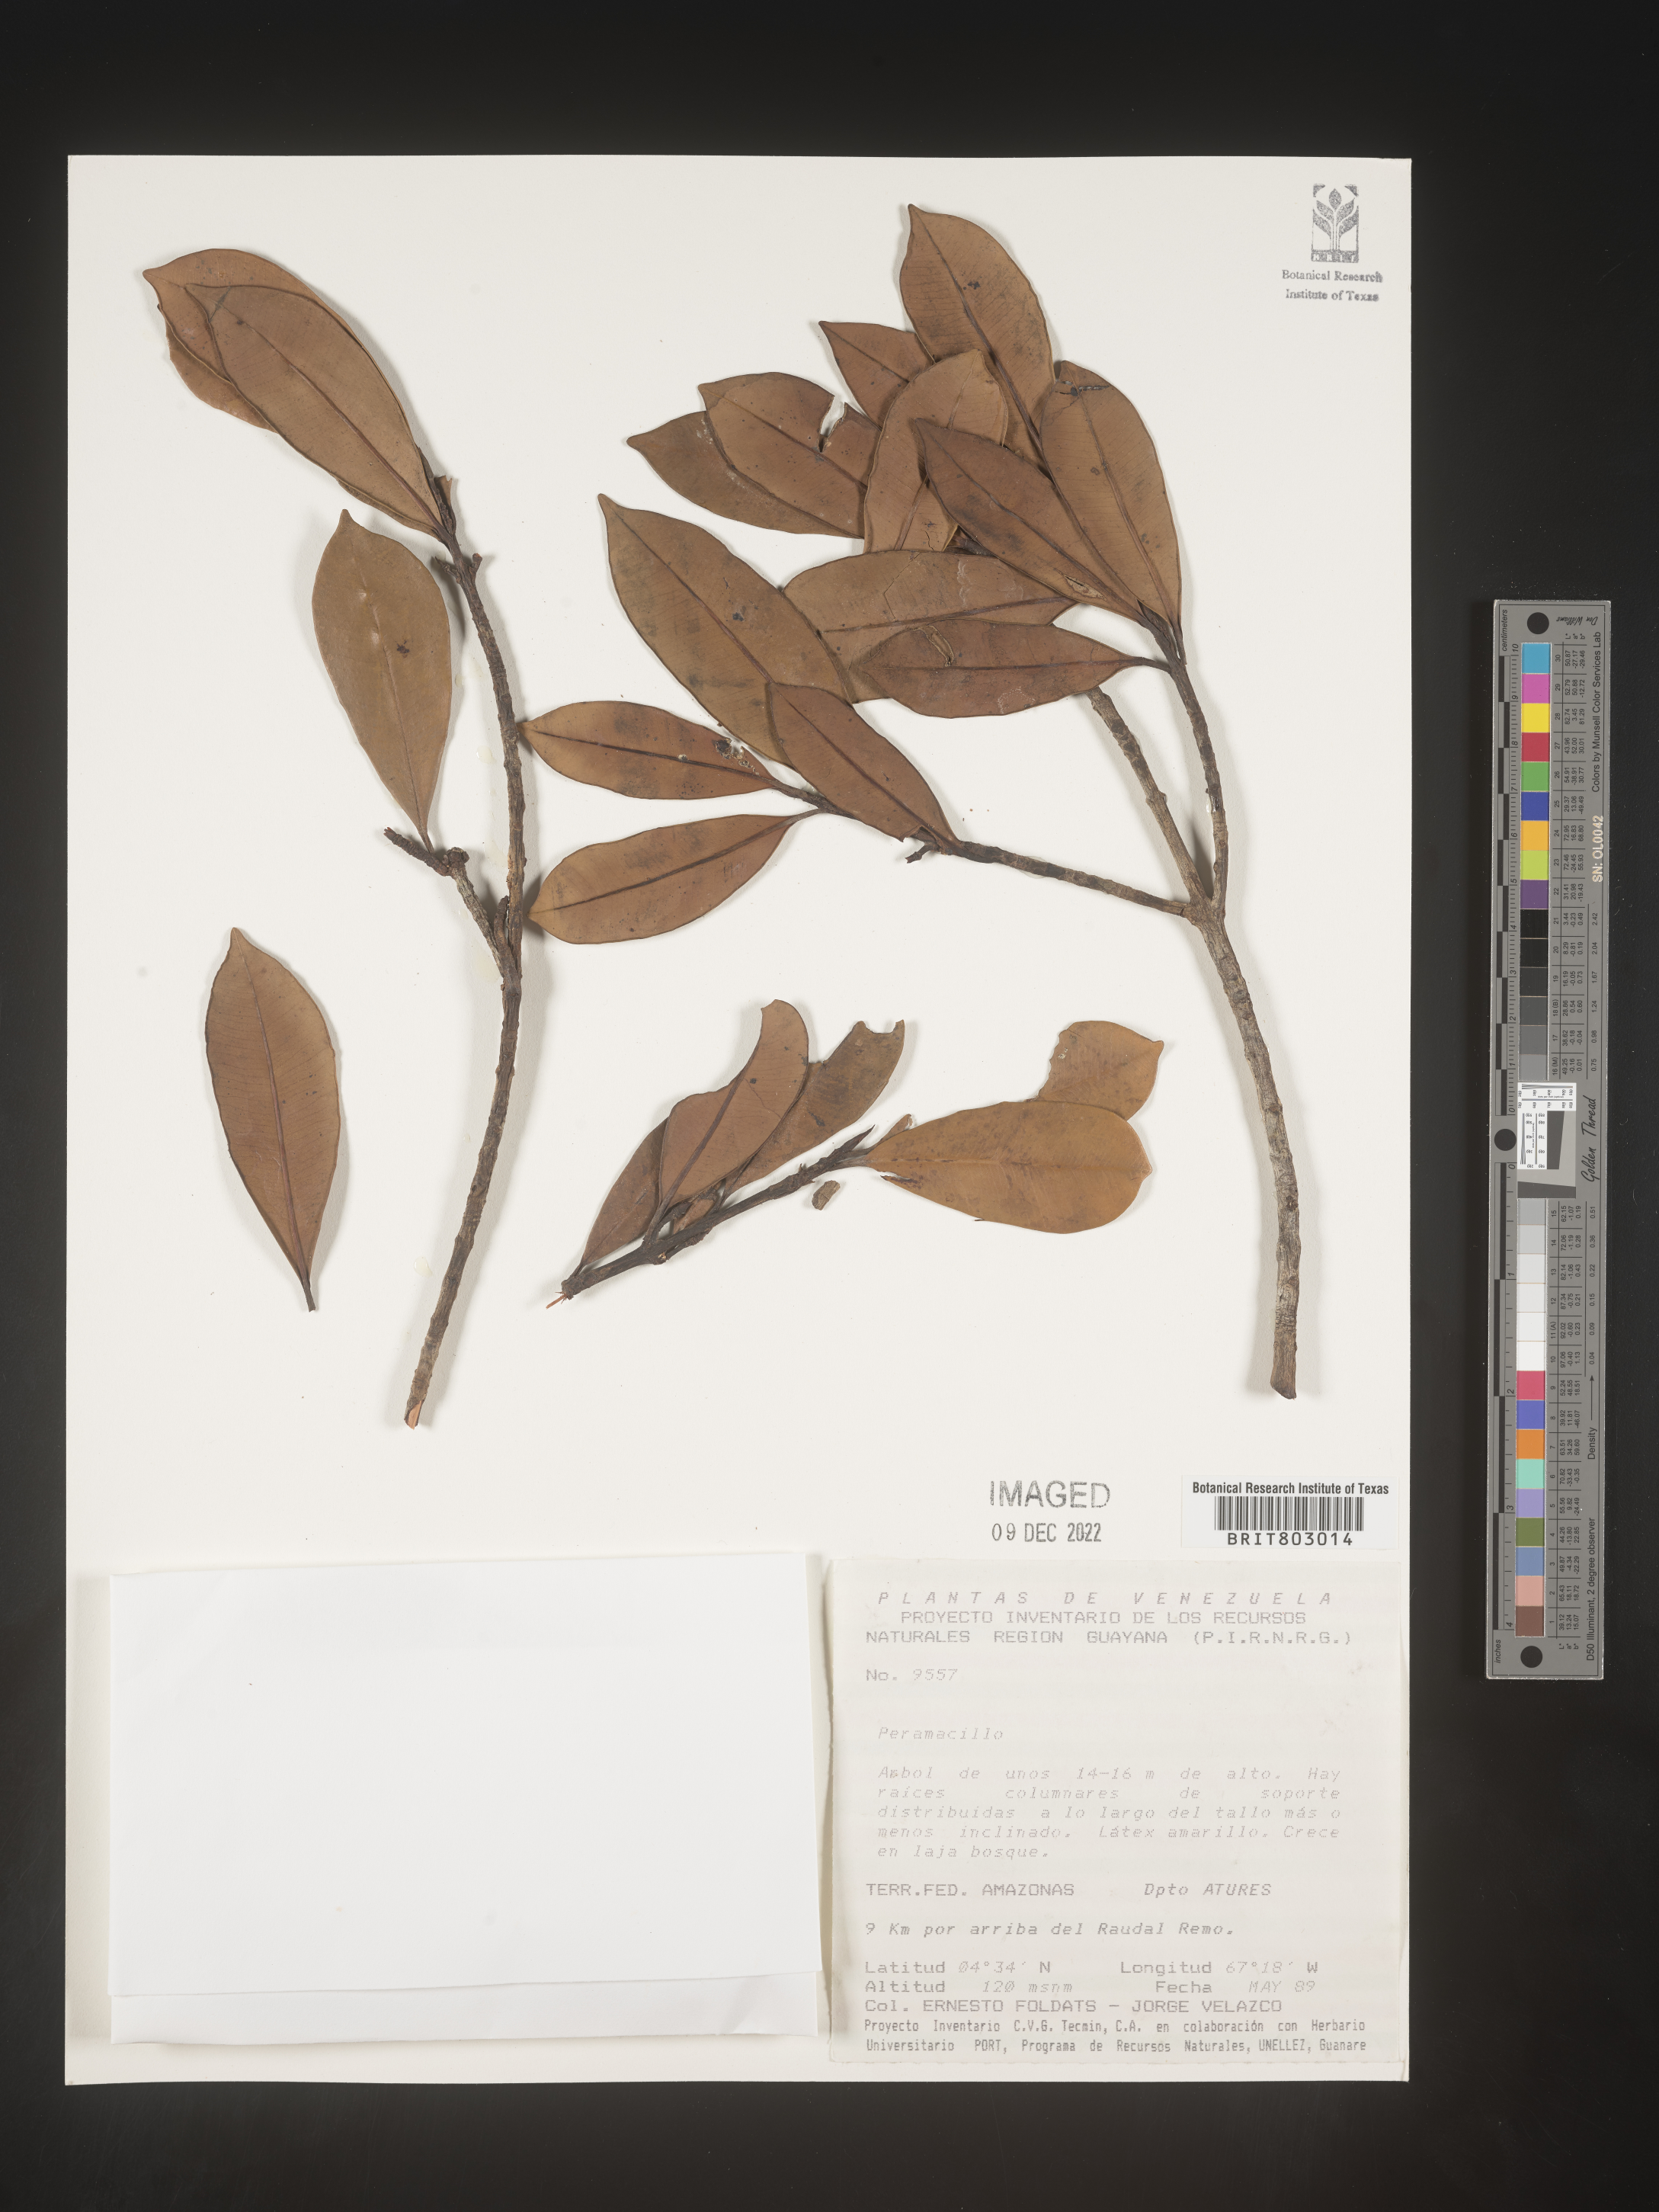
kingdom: Plantae
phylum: Tracheophyta
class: Magnoliopsida
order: Malpighiales
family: Clusiaceae
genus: Moronobea
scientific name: Moronobea
